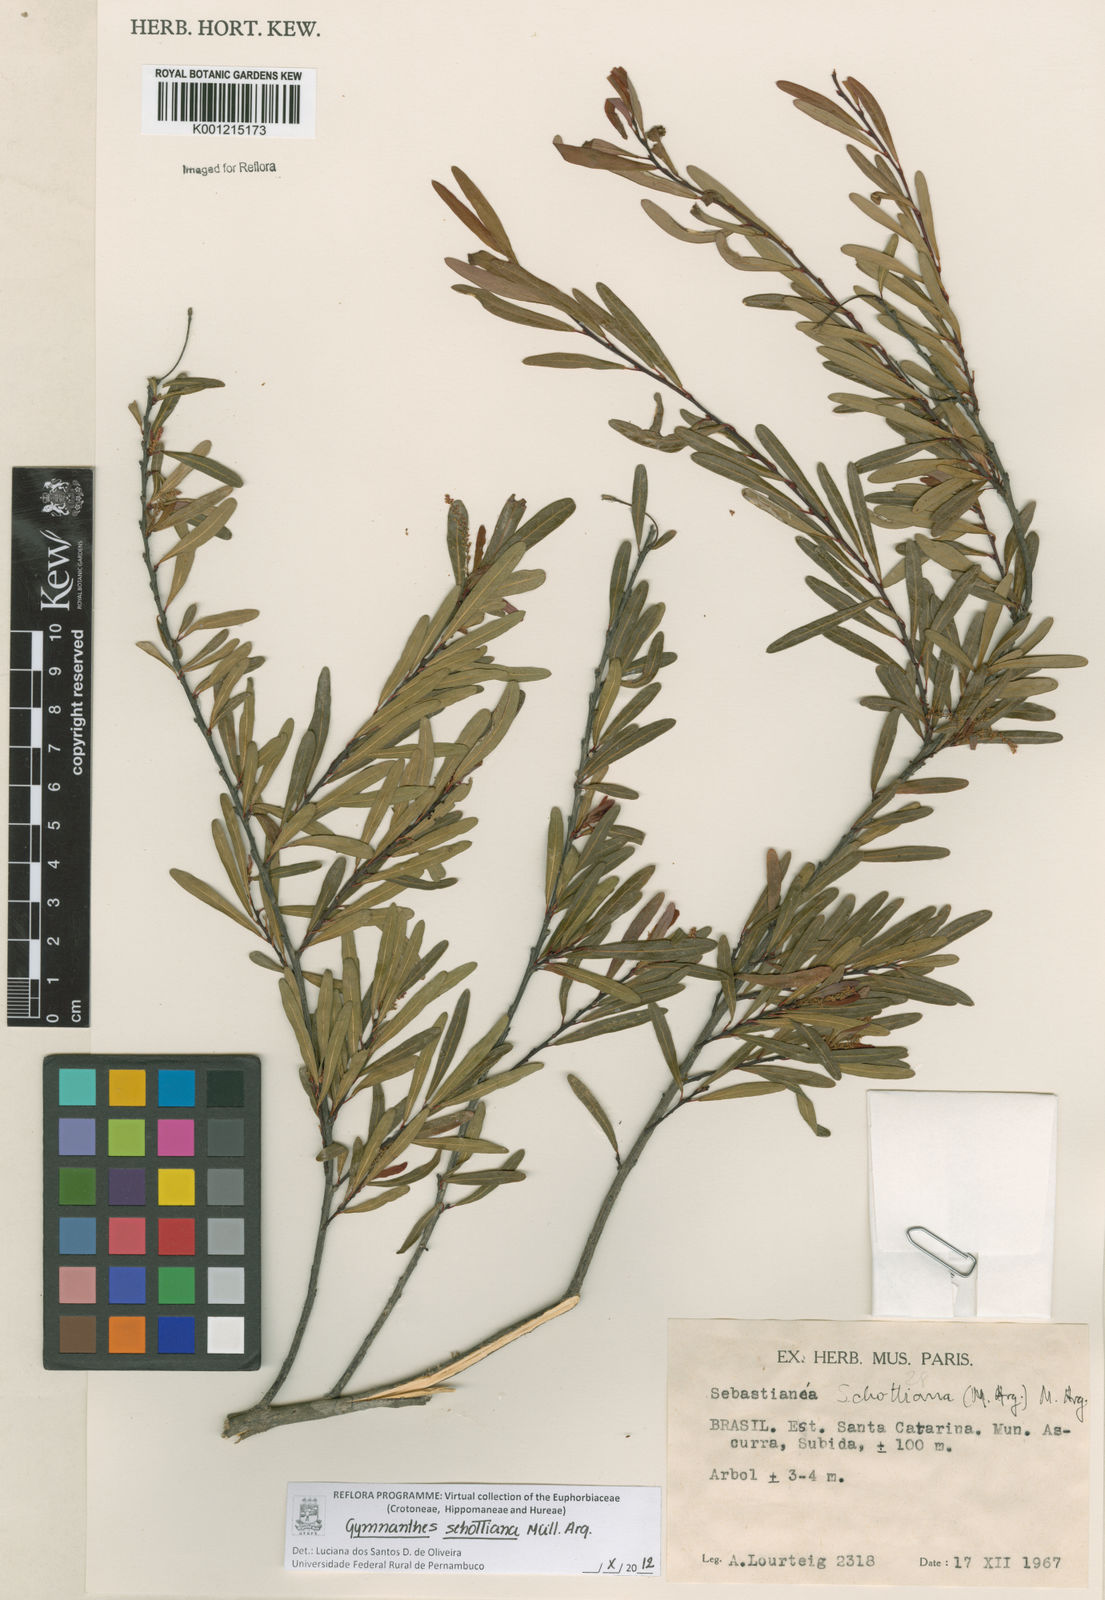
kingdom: Plantae
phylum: Tracheophyta
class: Magnoliopsida
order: Malpighiales
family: Euphorbiaceae
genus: Gymnanthes
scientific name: Gymnanthes
